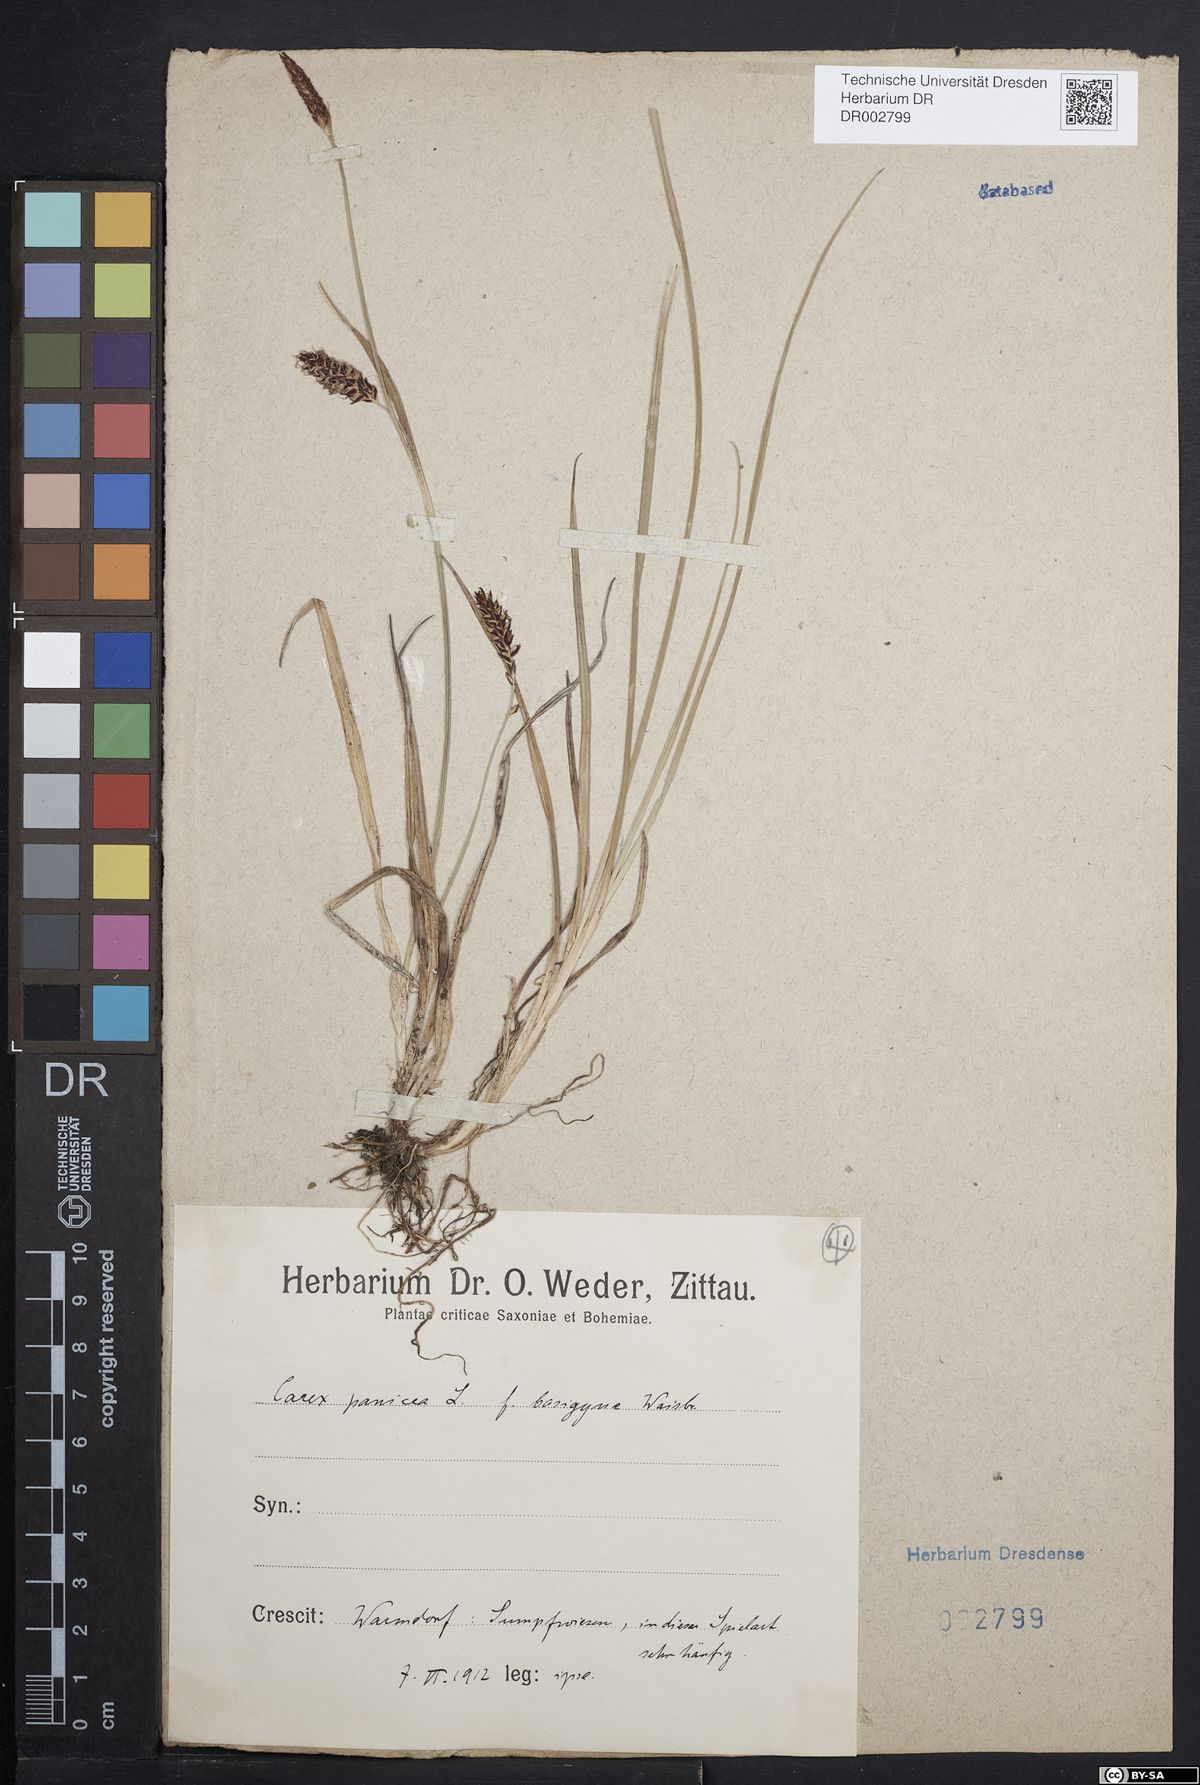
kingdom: Plantae
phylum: Tracheophyta
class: Liliopsida
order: Poales
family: Cyperaceae
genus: Carex
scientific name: Carex panicea
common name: Carnation sedge
